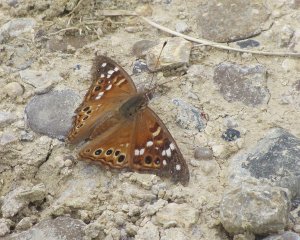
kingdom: Animalia
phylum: Arthropoda
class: Insecta
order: Lepidoptera
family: Nymphalidae
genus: Asterocampa
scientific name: Asterocampa leilia
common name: Empress Leilia
